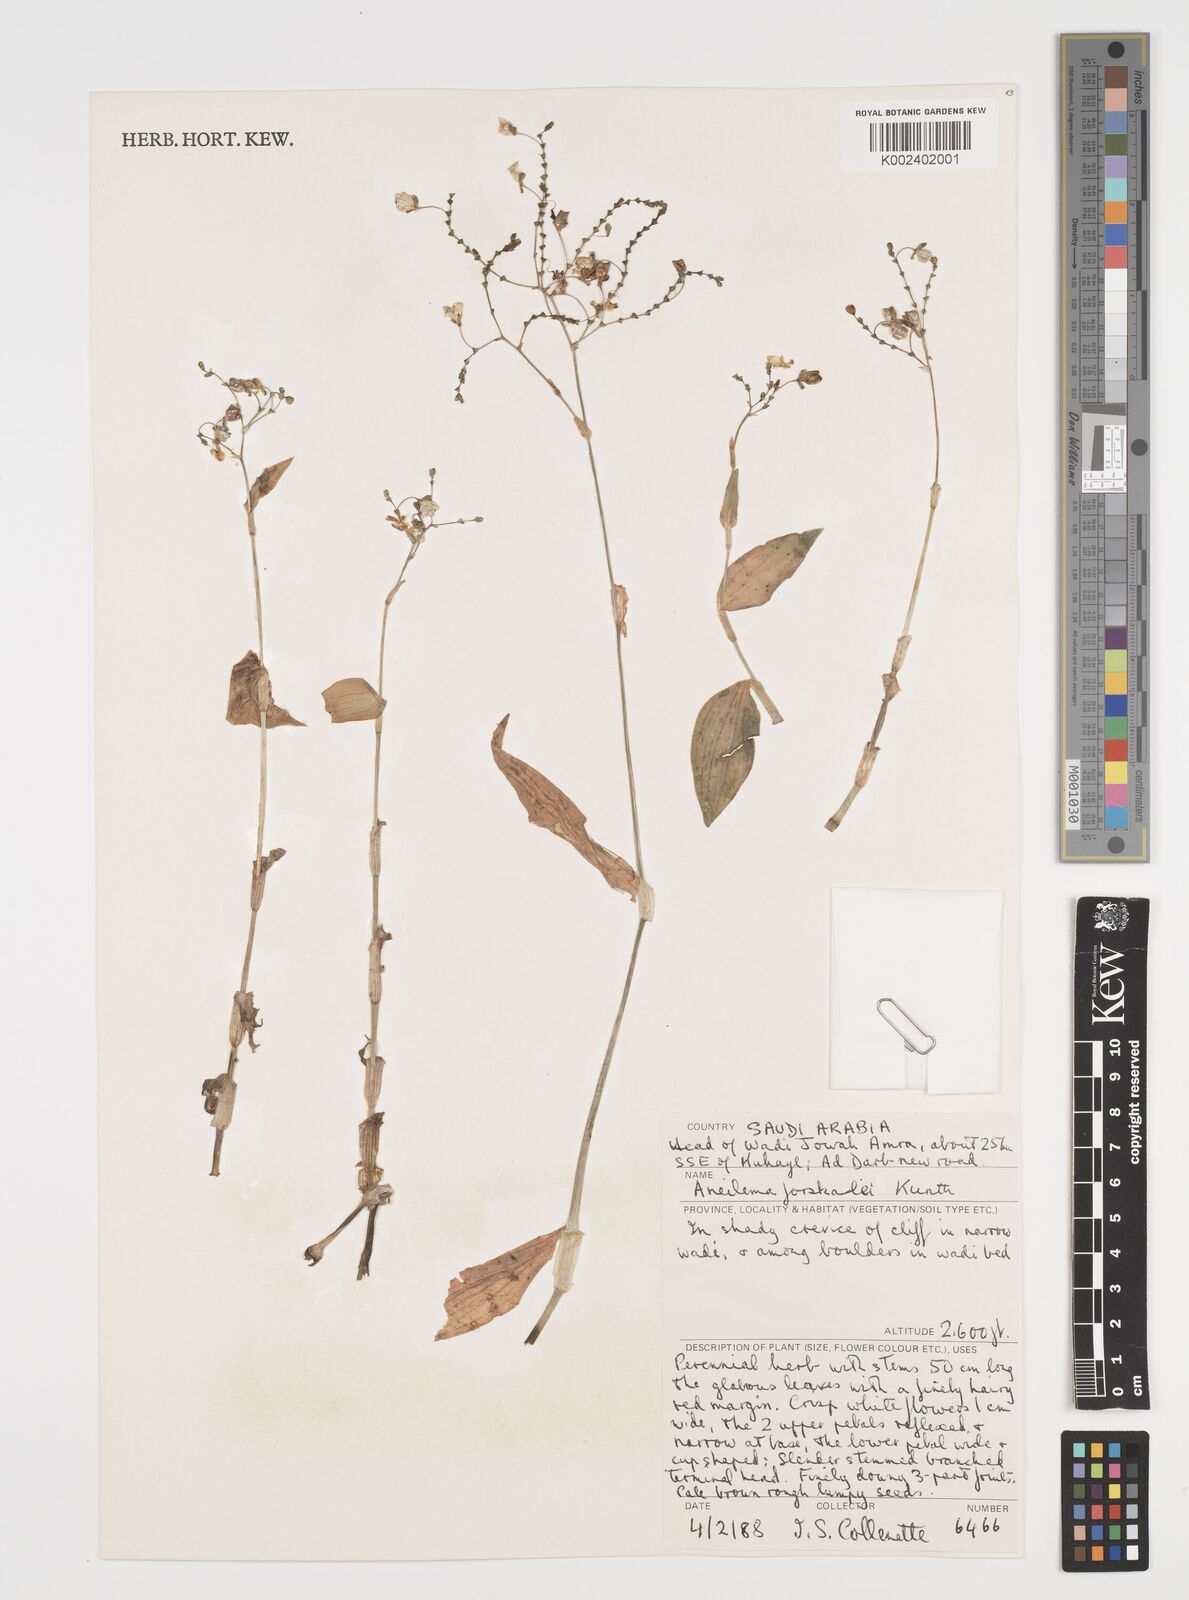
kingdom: Plantae
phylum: Tracheophyta
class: Liliopsida
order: Commelinales
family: Commelinaceae
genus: Aneilema
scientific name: Aneilema forskalii
